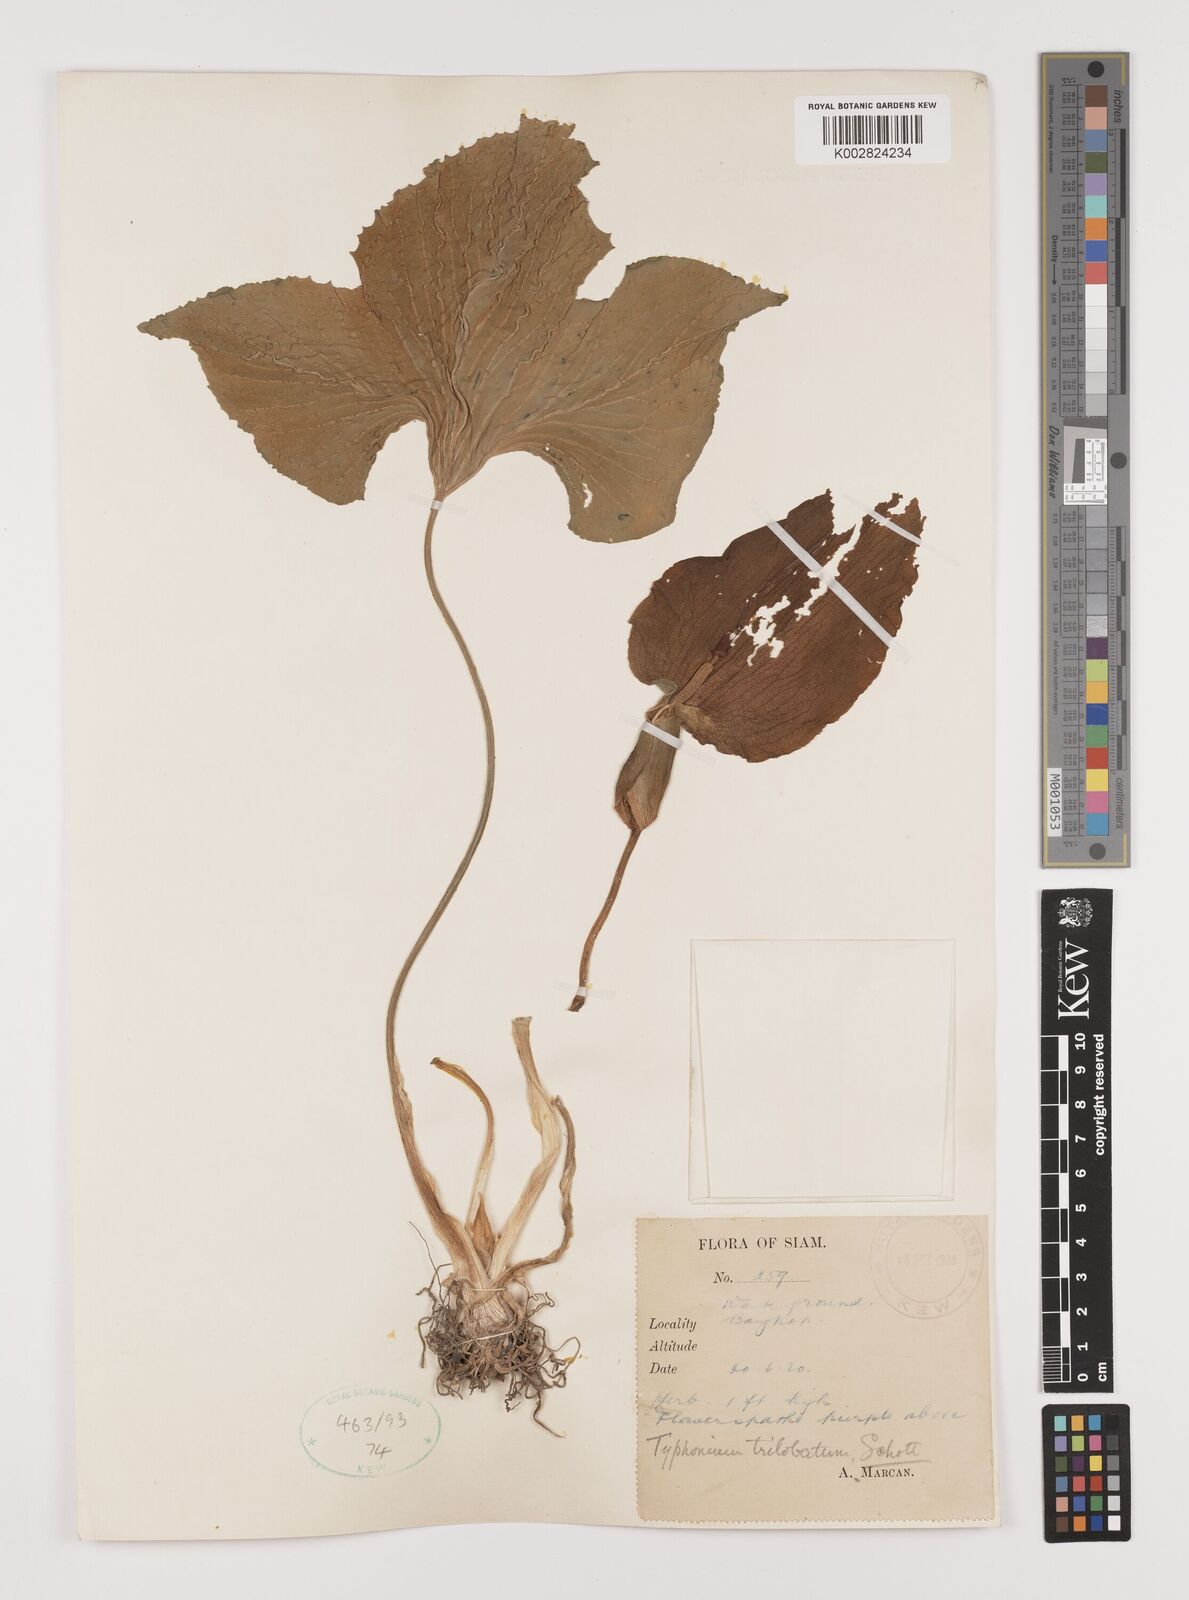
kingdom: Plantae
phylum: Tracheophyta
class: Liliopsida
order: Alismatales
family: Araceae
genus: Typhonium
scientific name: Typhonium trilobatum
